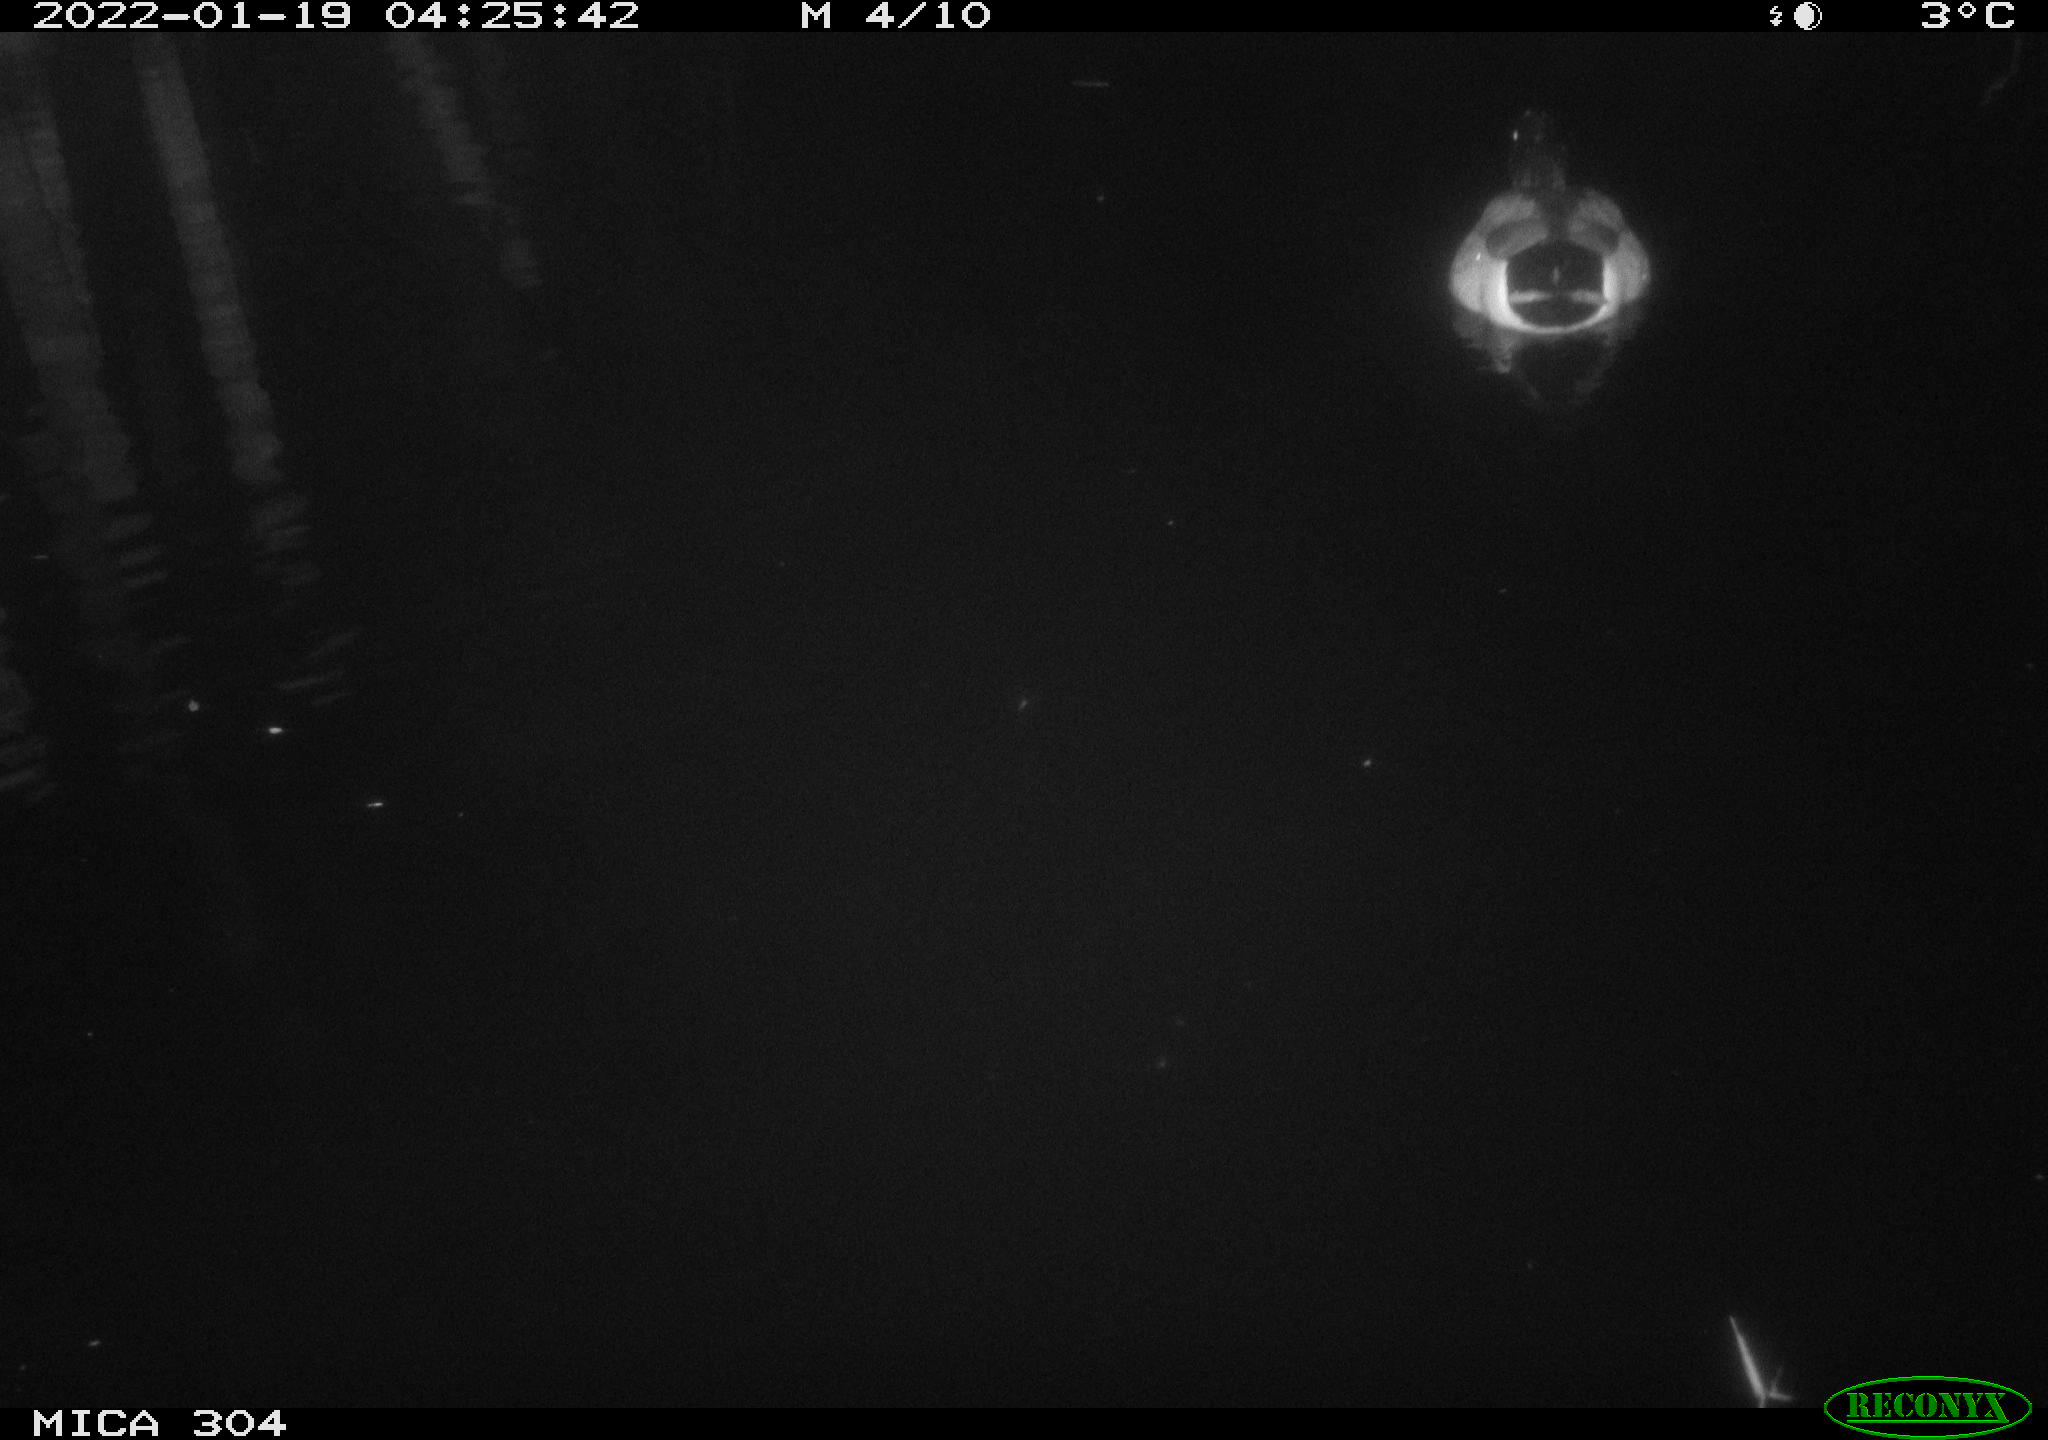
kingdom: Animalia
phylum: Chordata
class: Aves
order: Anseriformes
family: Anatidae
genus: Anas
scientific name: Anas
